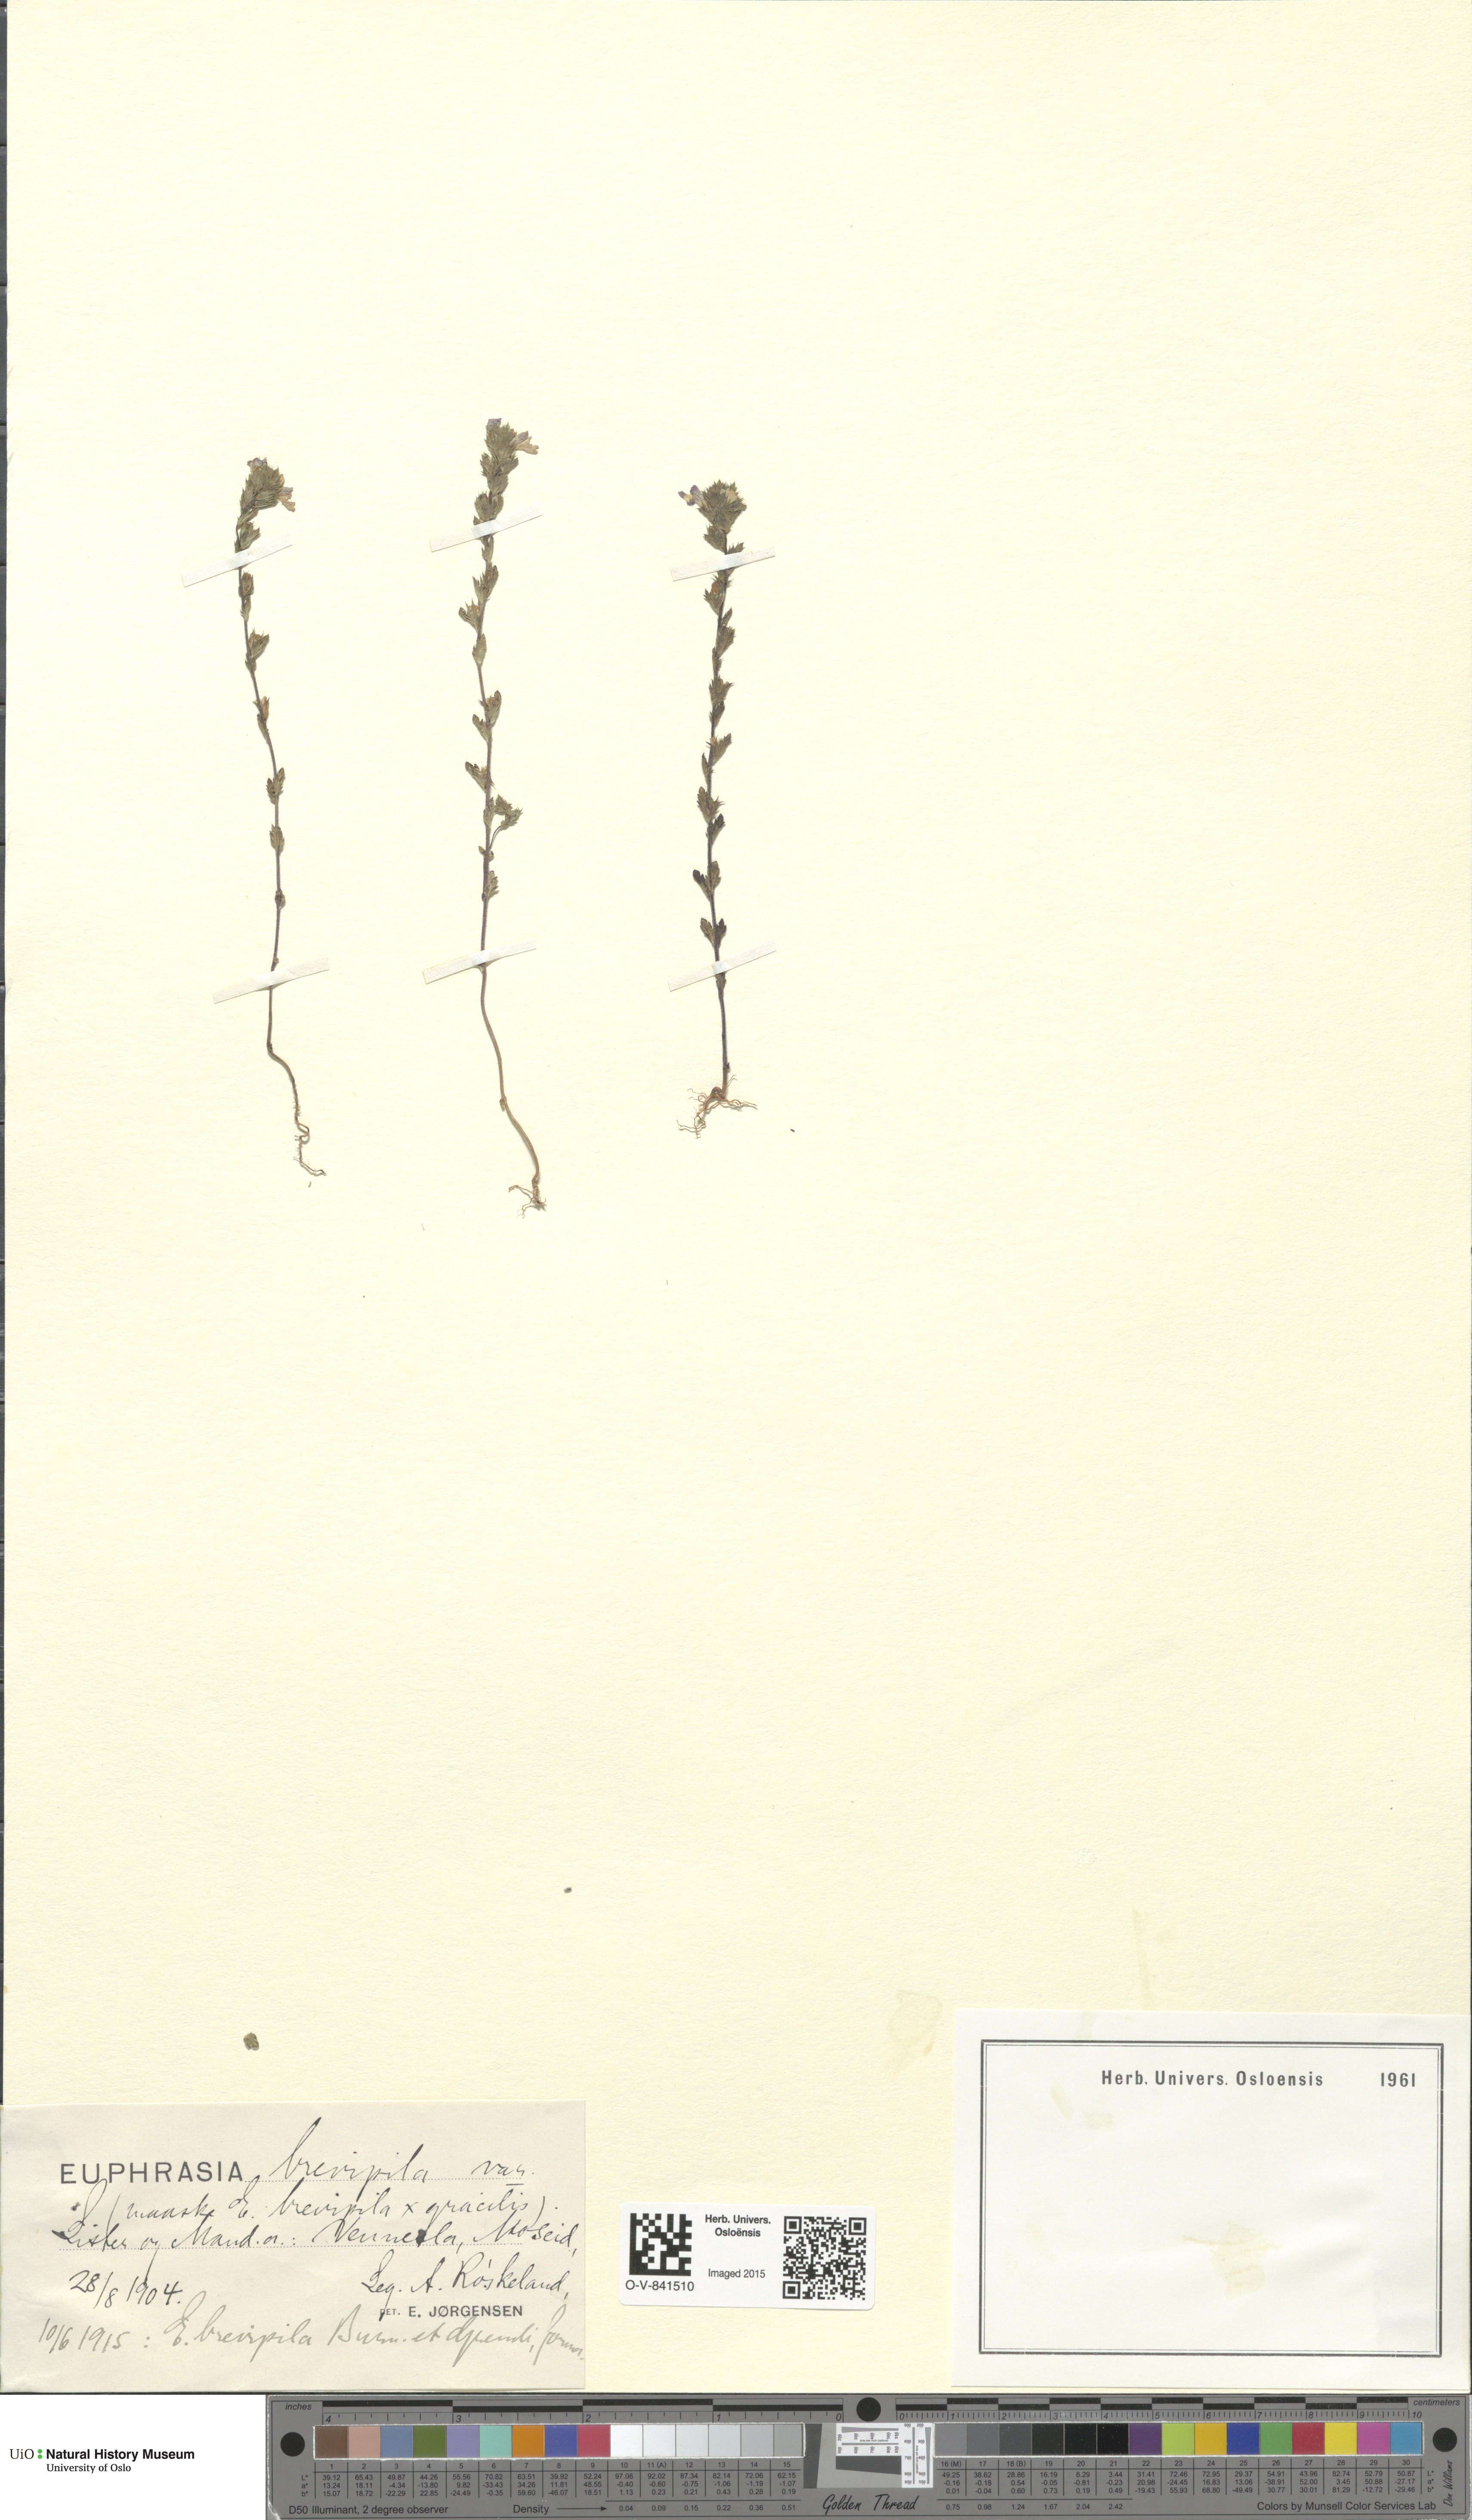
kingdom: Plantae
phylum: Tracheophyta
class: Magnoliopsida
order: Lamiales
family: Orobanchaceae
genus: Euphrasia
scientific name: Euphrasia vernalis
